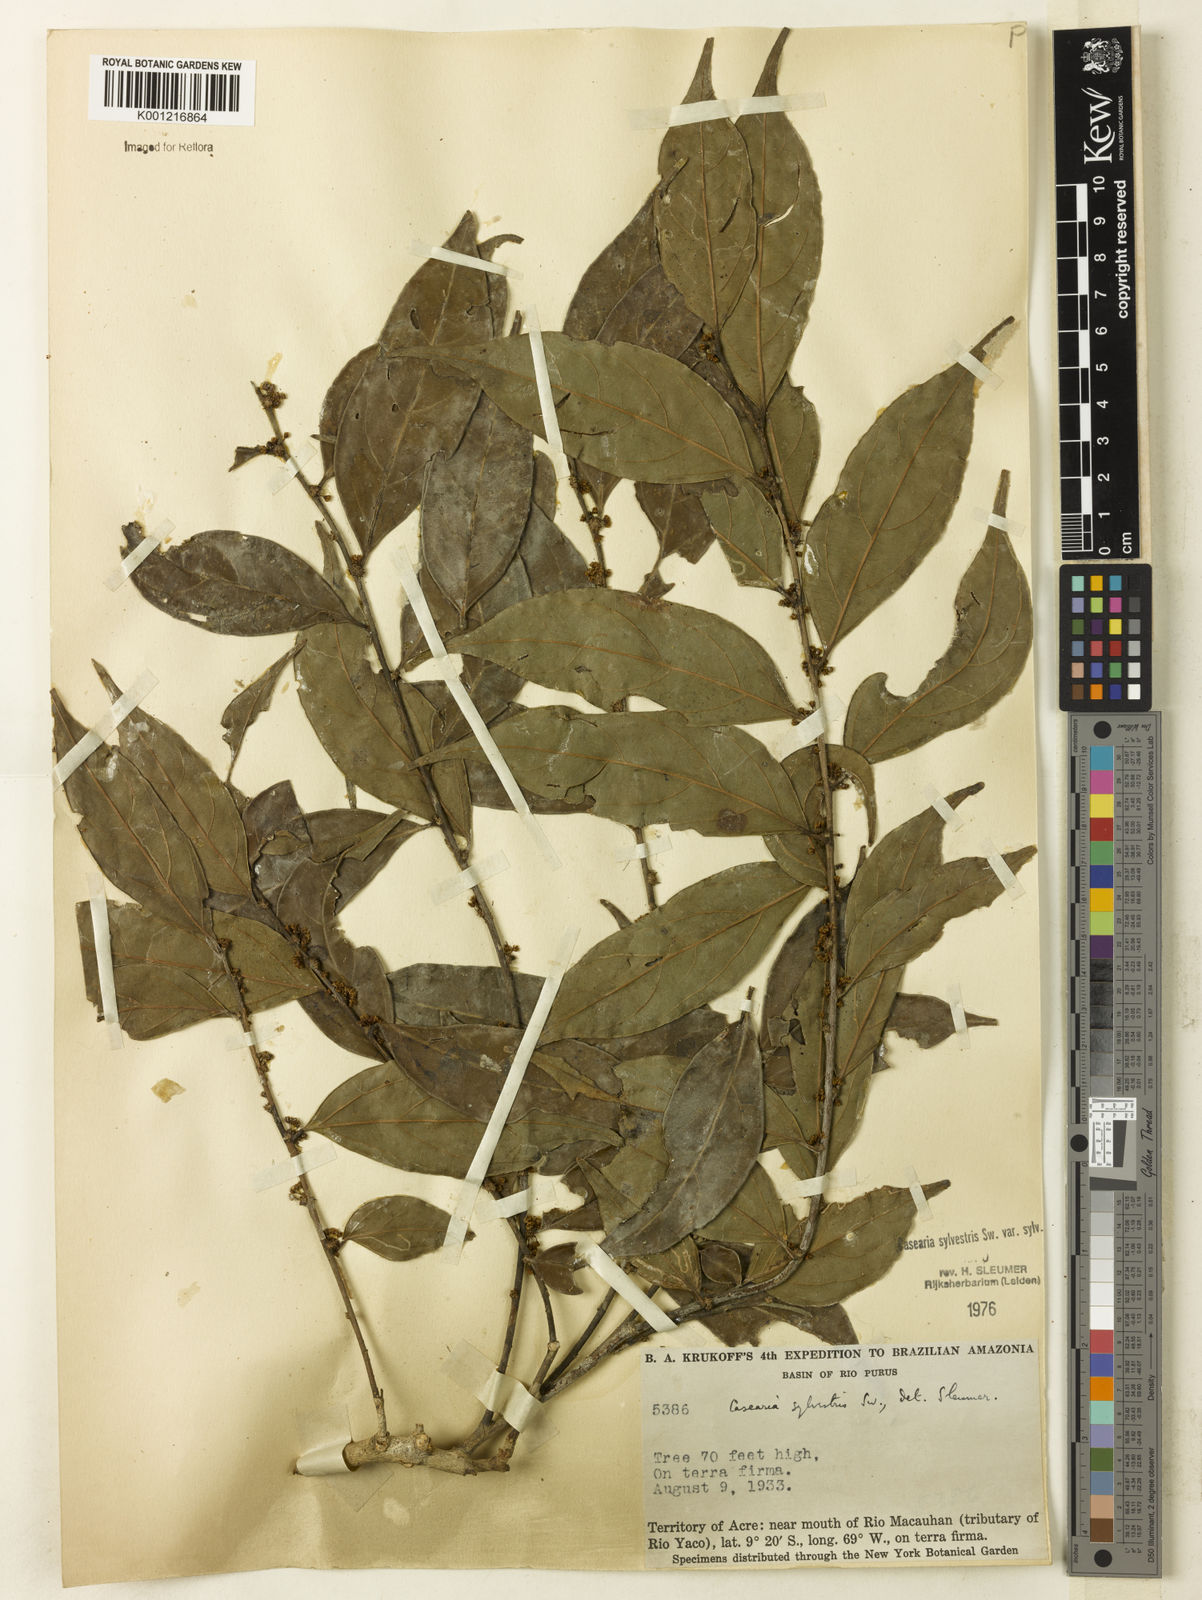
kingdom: Plantae
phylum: Tracheophyta
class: Magnoliopsida
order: Malpighiales
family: Salicaceae
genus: Casearia
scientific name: Casearia sylvestris
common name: Wild sage
